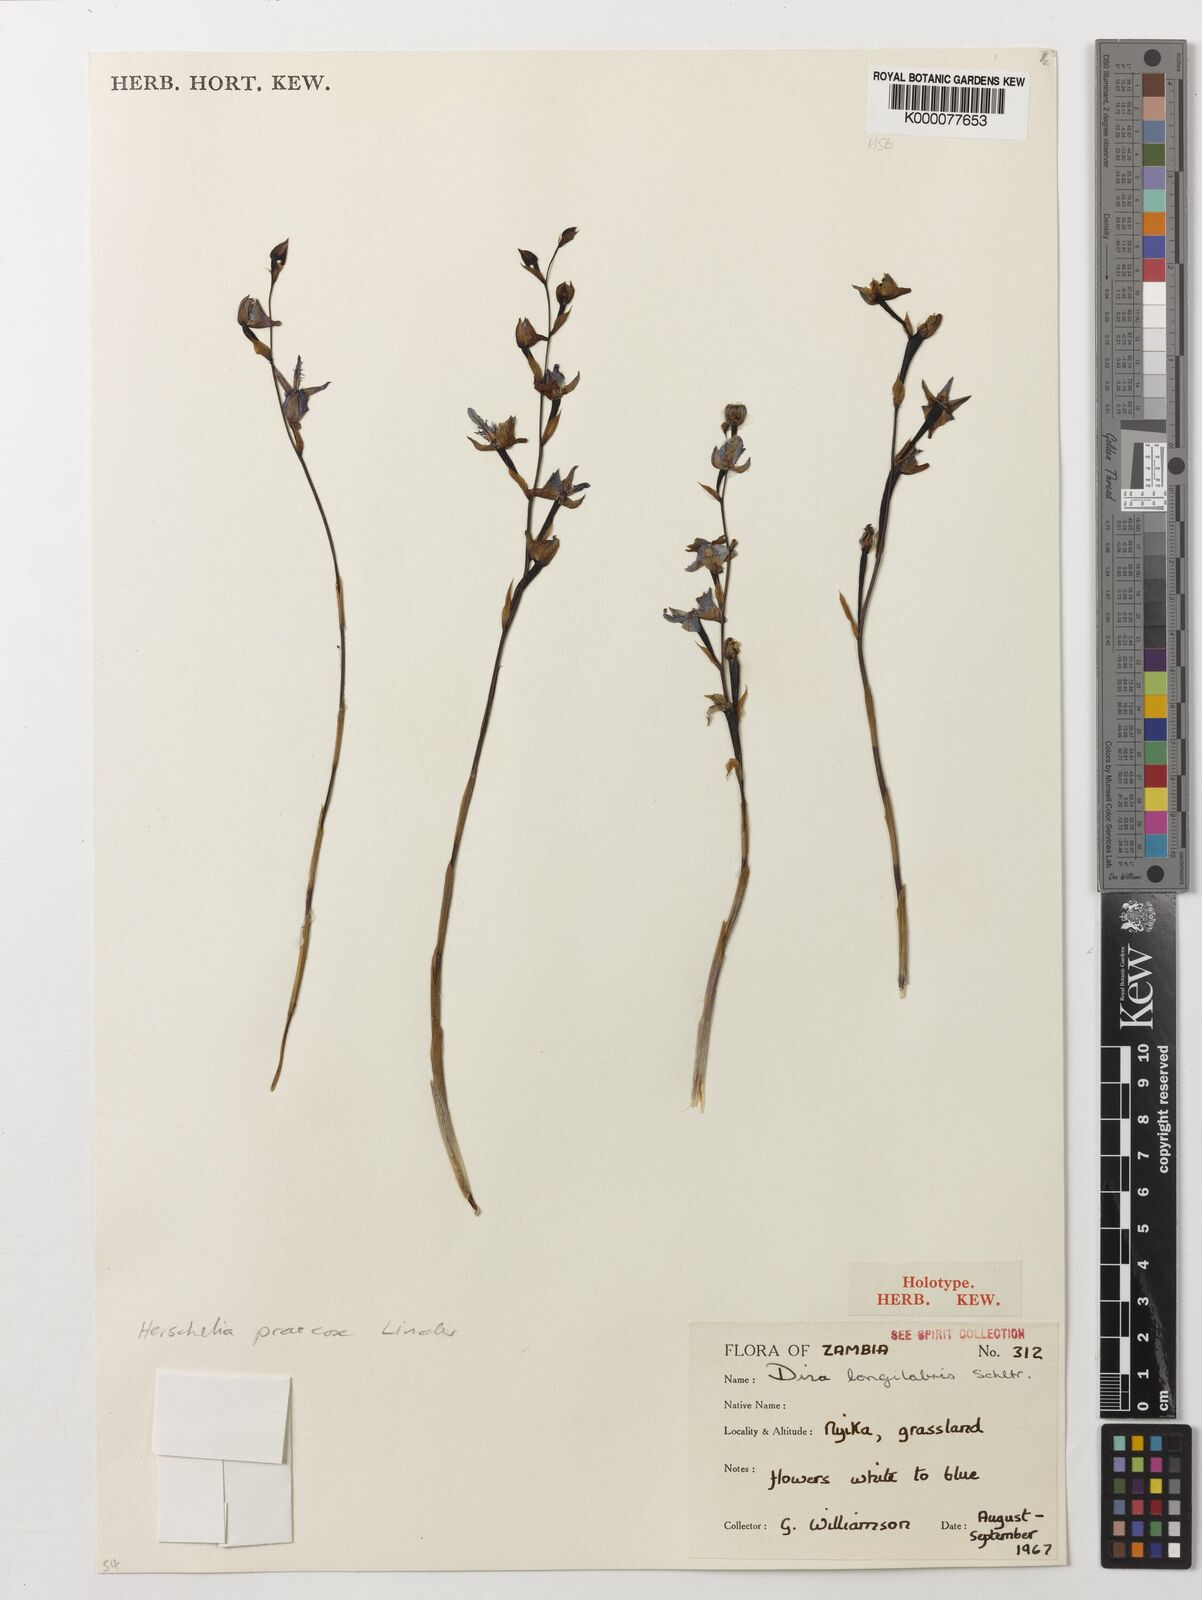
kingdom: Plantae
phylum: Tracheophyta
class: Liliopsida
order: Asparagales
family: Orchidaceae
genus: Disa
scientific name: Disa praecox
